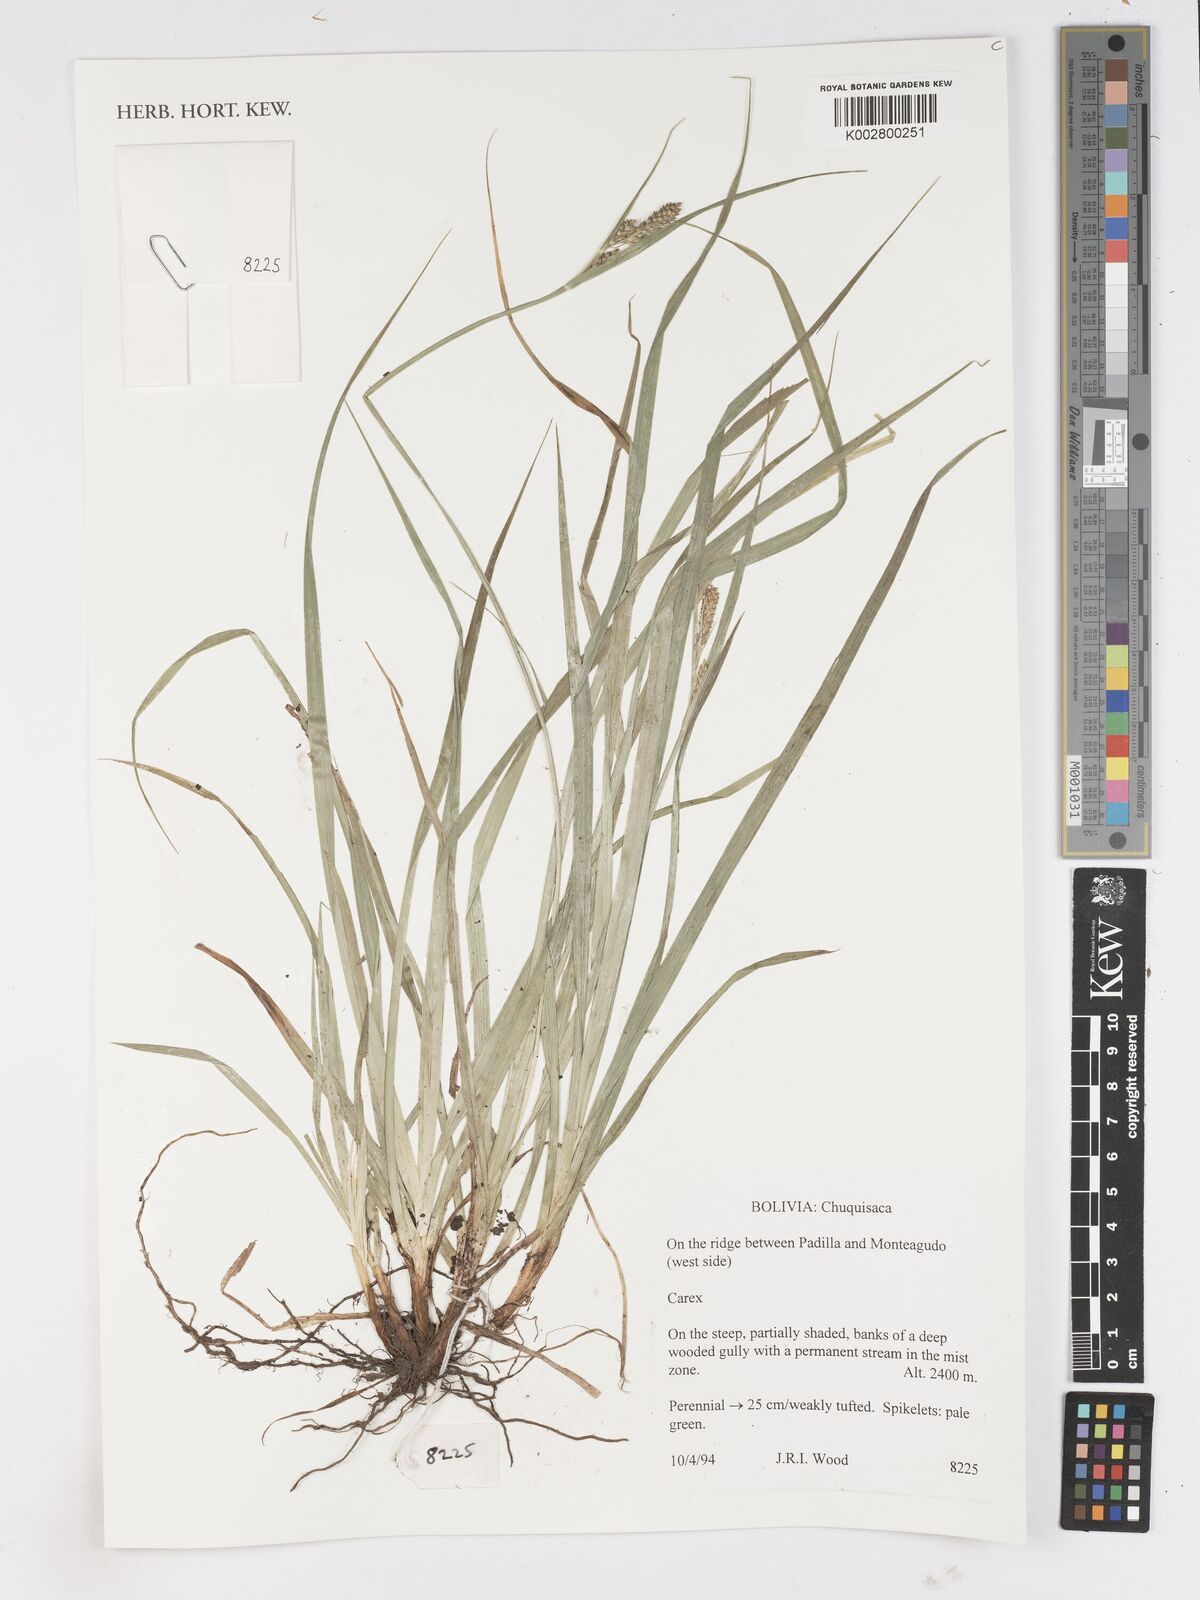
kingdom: Plantae
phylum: Tracheophyta
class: Liliopsida
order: Poales
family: Cyperaceae
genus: Carex
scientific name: Carex
